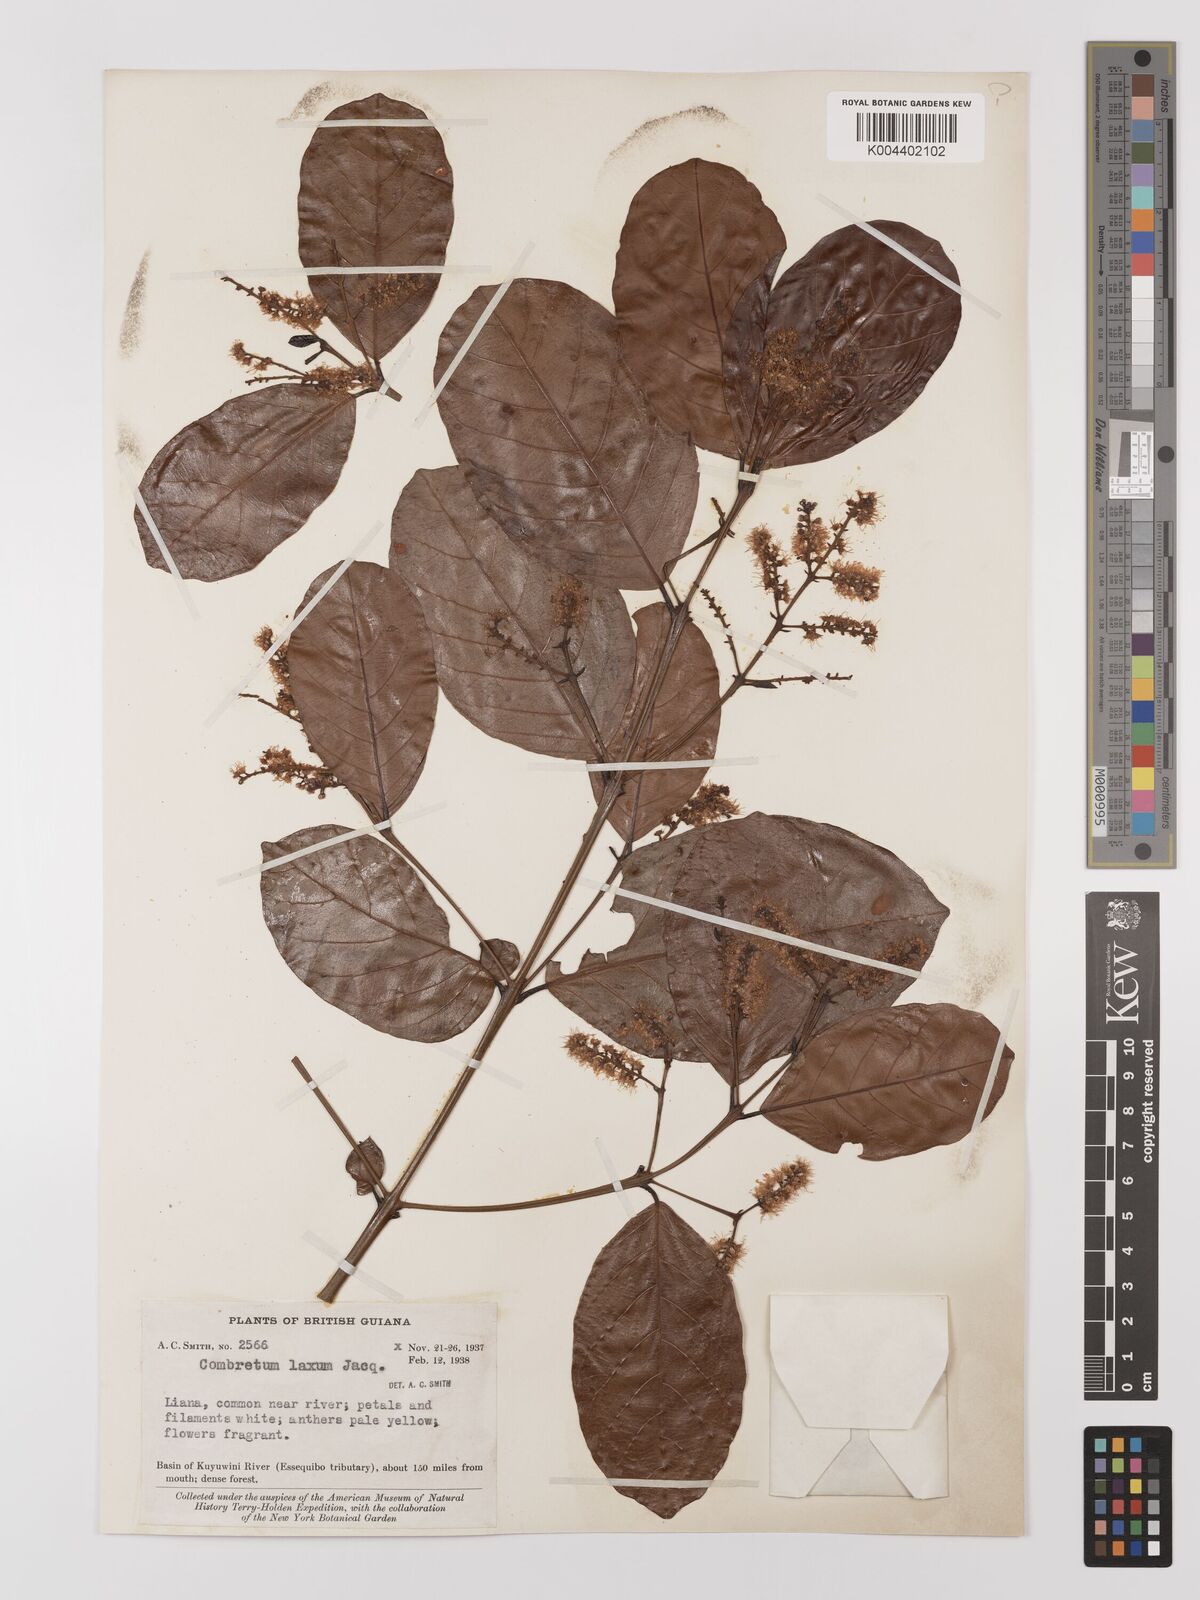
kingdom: Plantae
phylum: Tracheophyta
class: Magnoliopsida
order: Myrtales
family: Combretaceae
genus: Combretum
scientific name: Combretum
